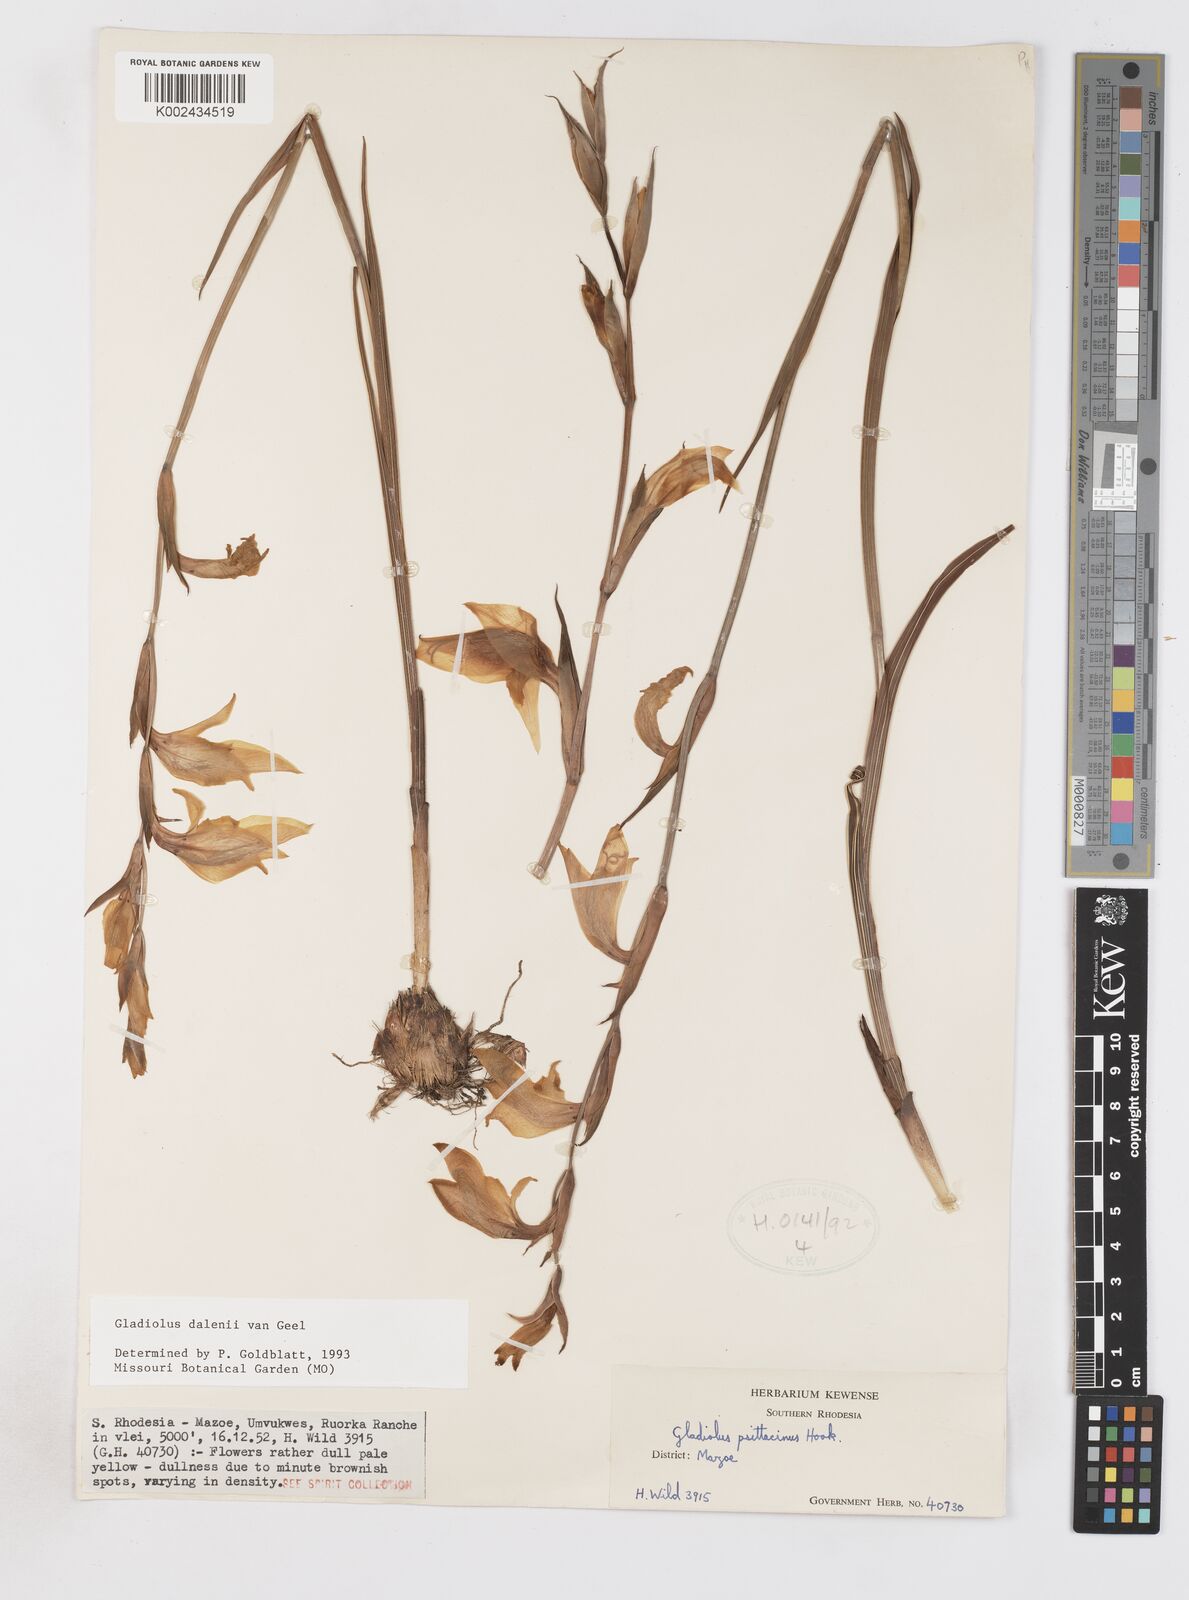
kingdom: Plantae
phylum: Tracheophyta
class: Liliopsida
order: Asparagales
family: Iridaceae
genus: Gladiolus
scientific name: Gladiolus dalenii
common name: Cornflag
